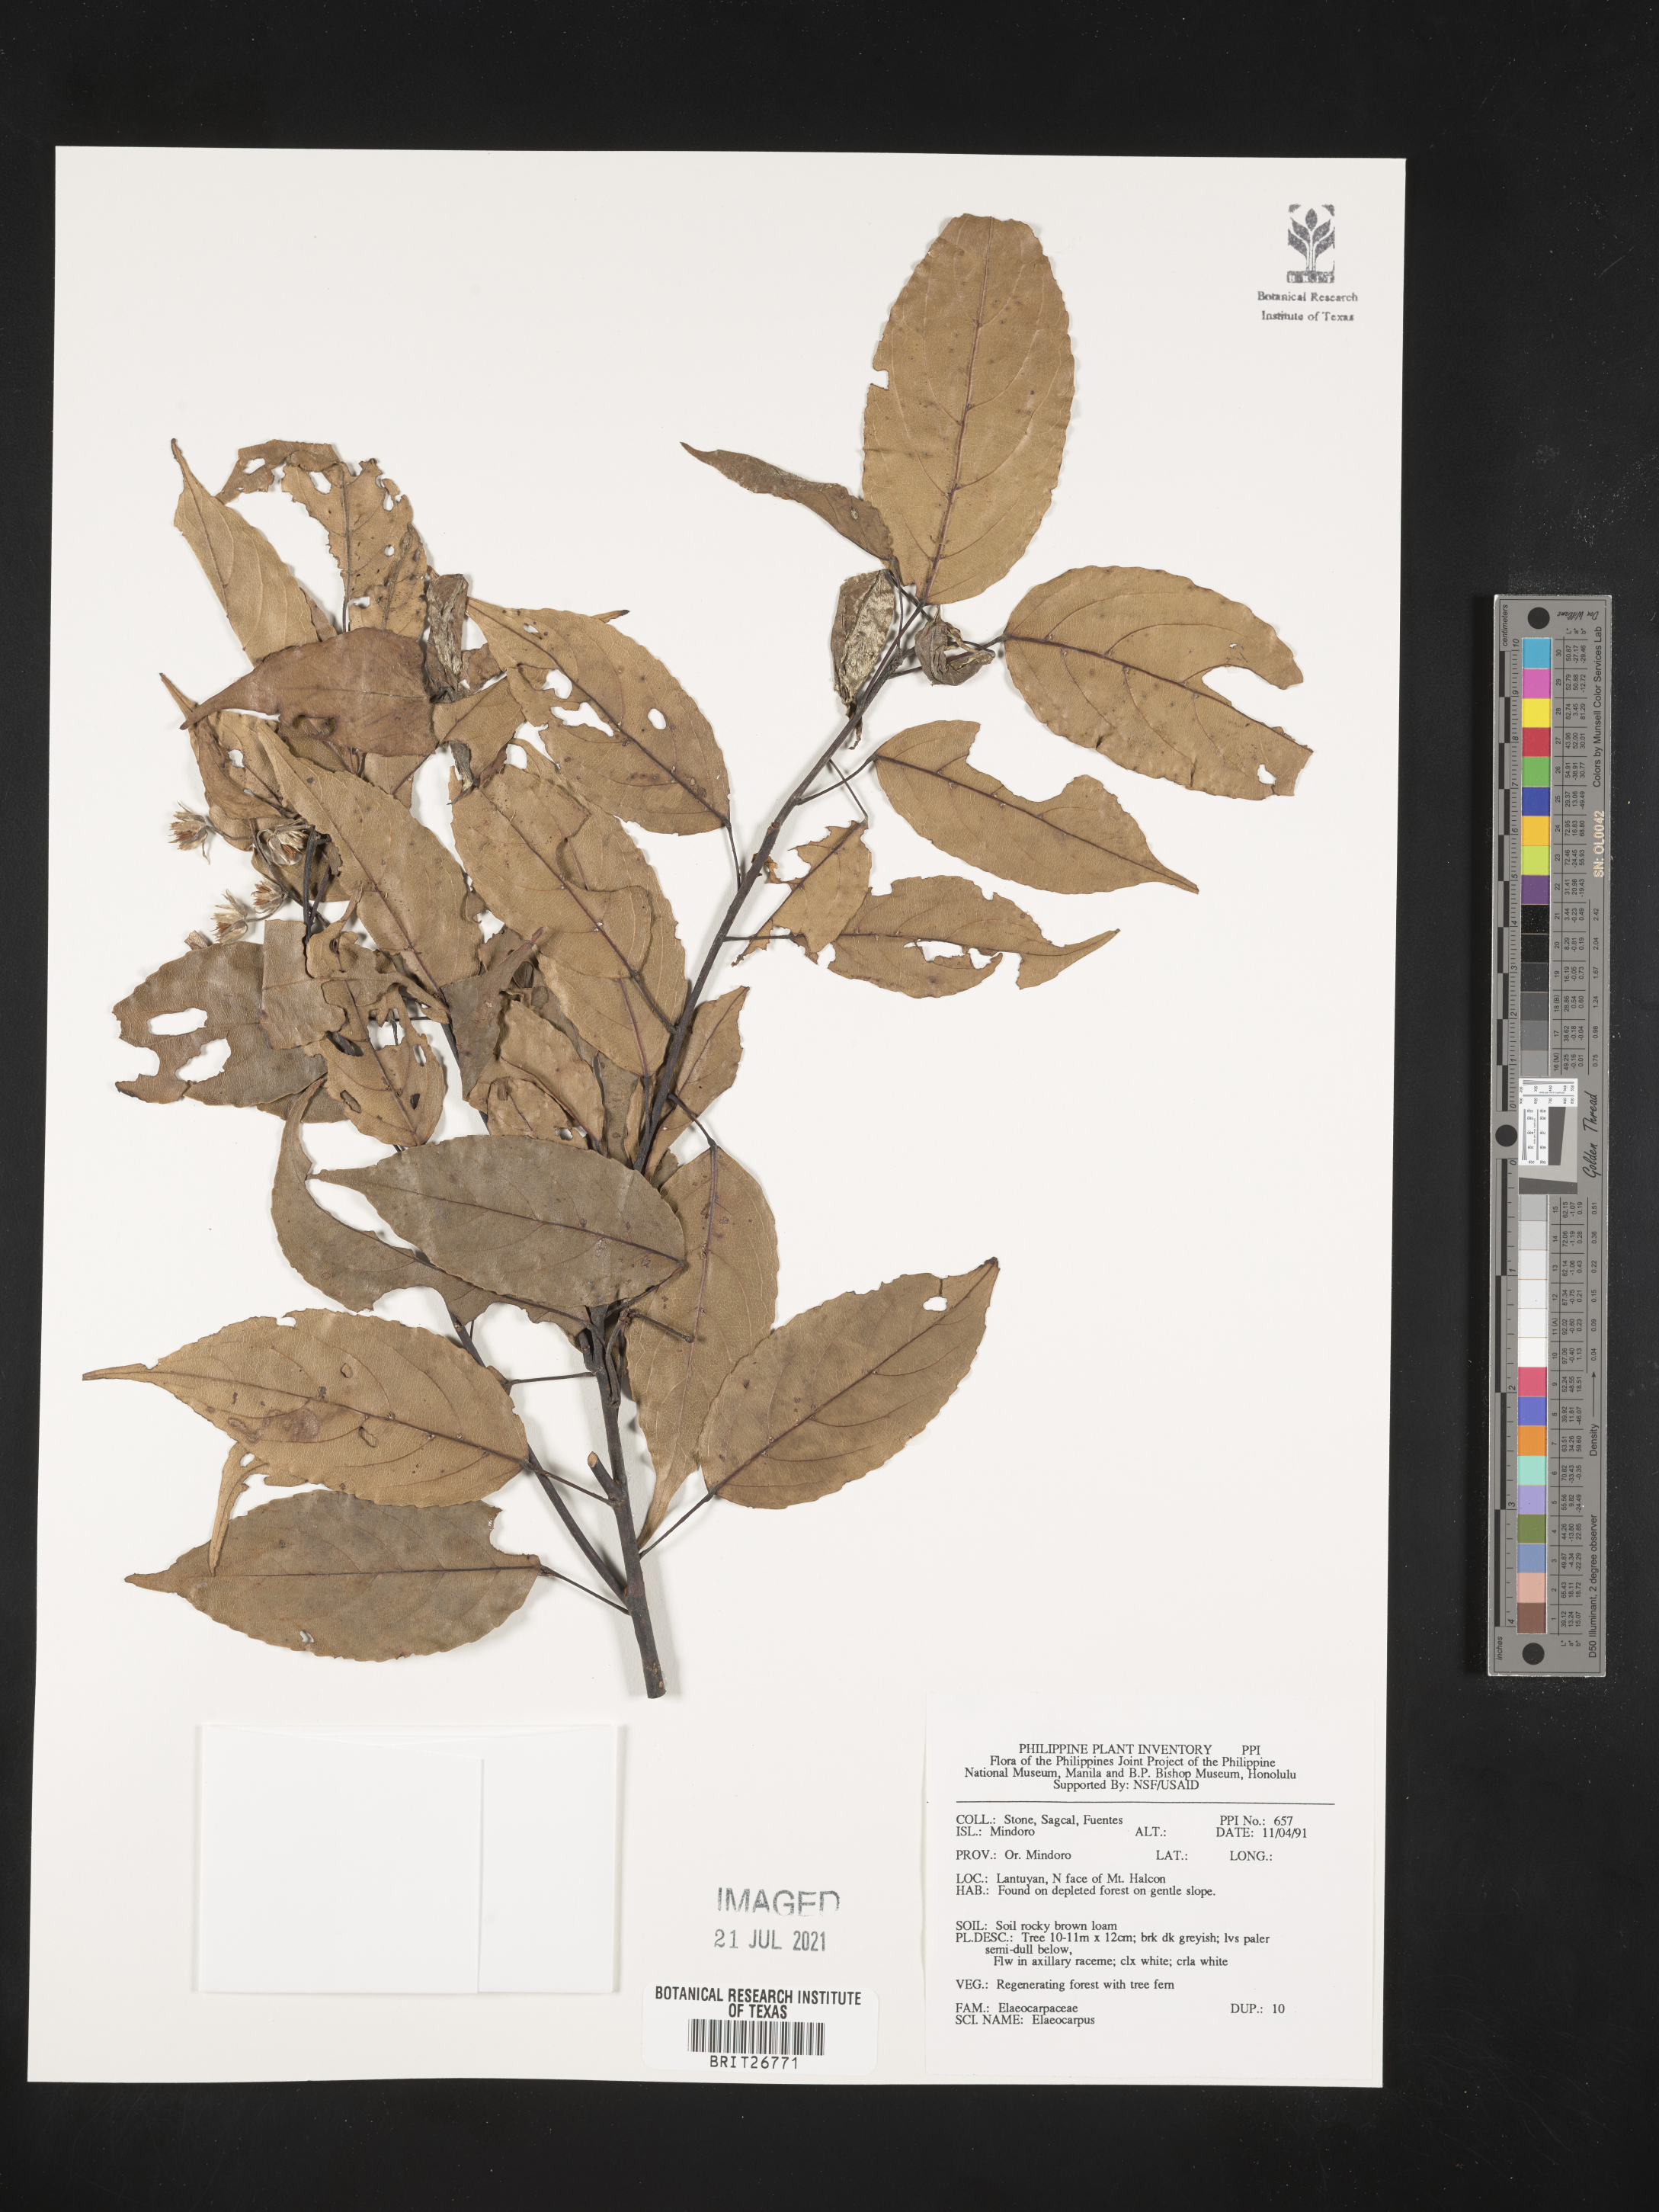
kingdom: Plantae
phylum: Tracheophyta
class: Magnoliopsida
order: Oxalidales
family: Elaeocarpaceae
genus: Elaeocarpus
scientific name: Elaeocarpus
